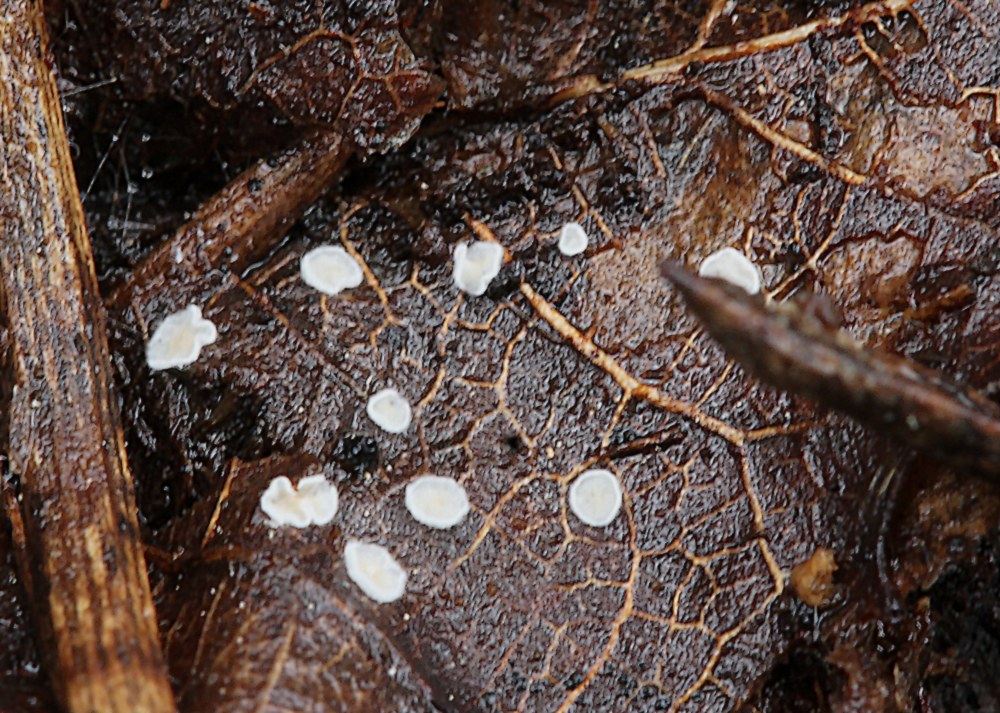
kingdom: Fungi
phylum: Basidiomycota
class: Agaricomycetes
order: Agaricales
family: Crepidotaceae
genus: Pellidiscus
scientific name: Pellidiscus pallidus
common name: skålformet muslingesvamp
